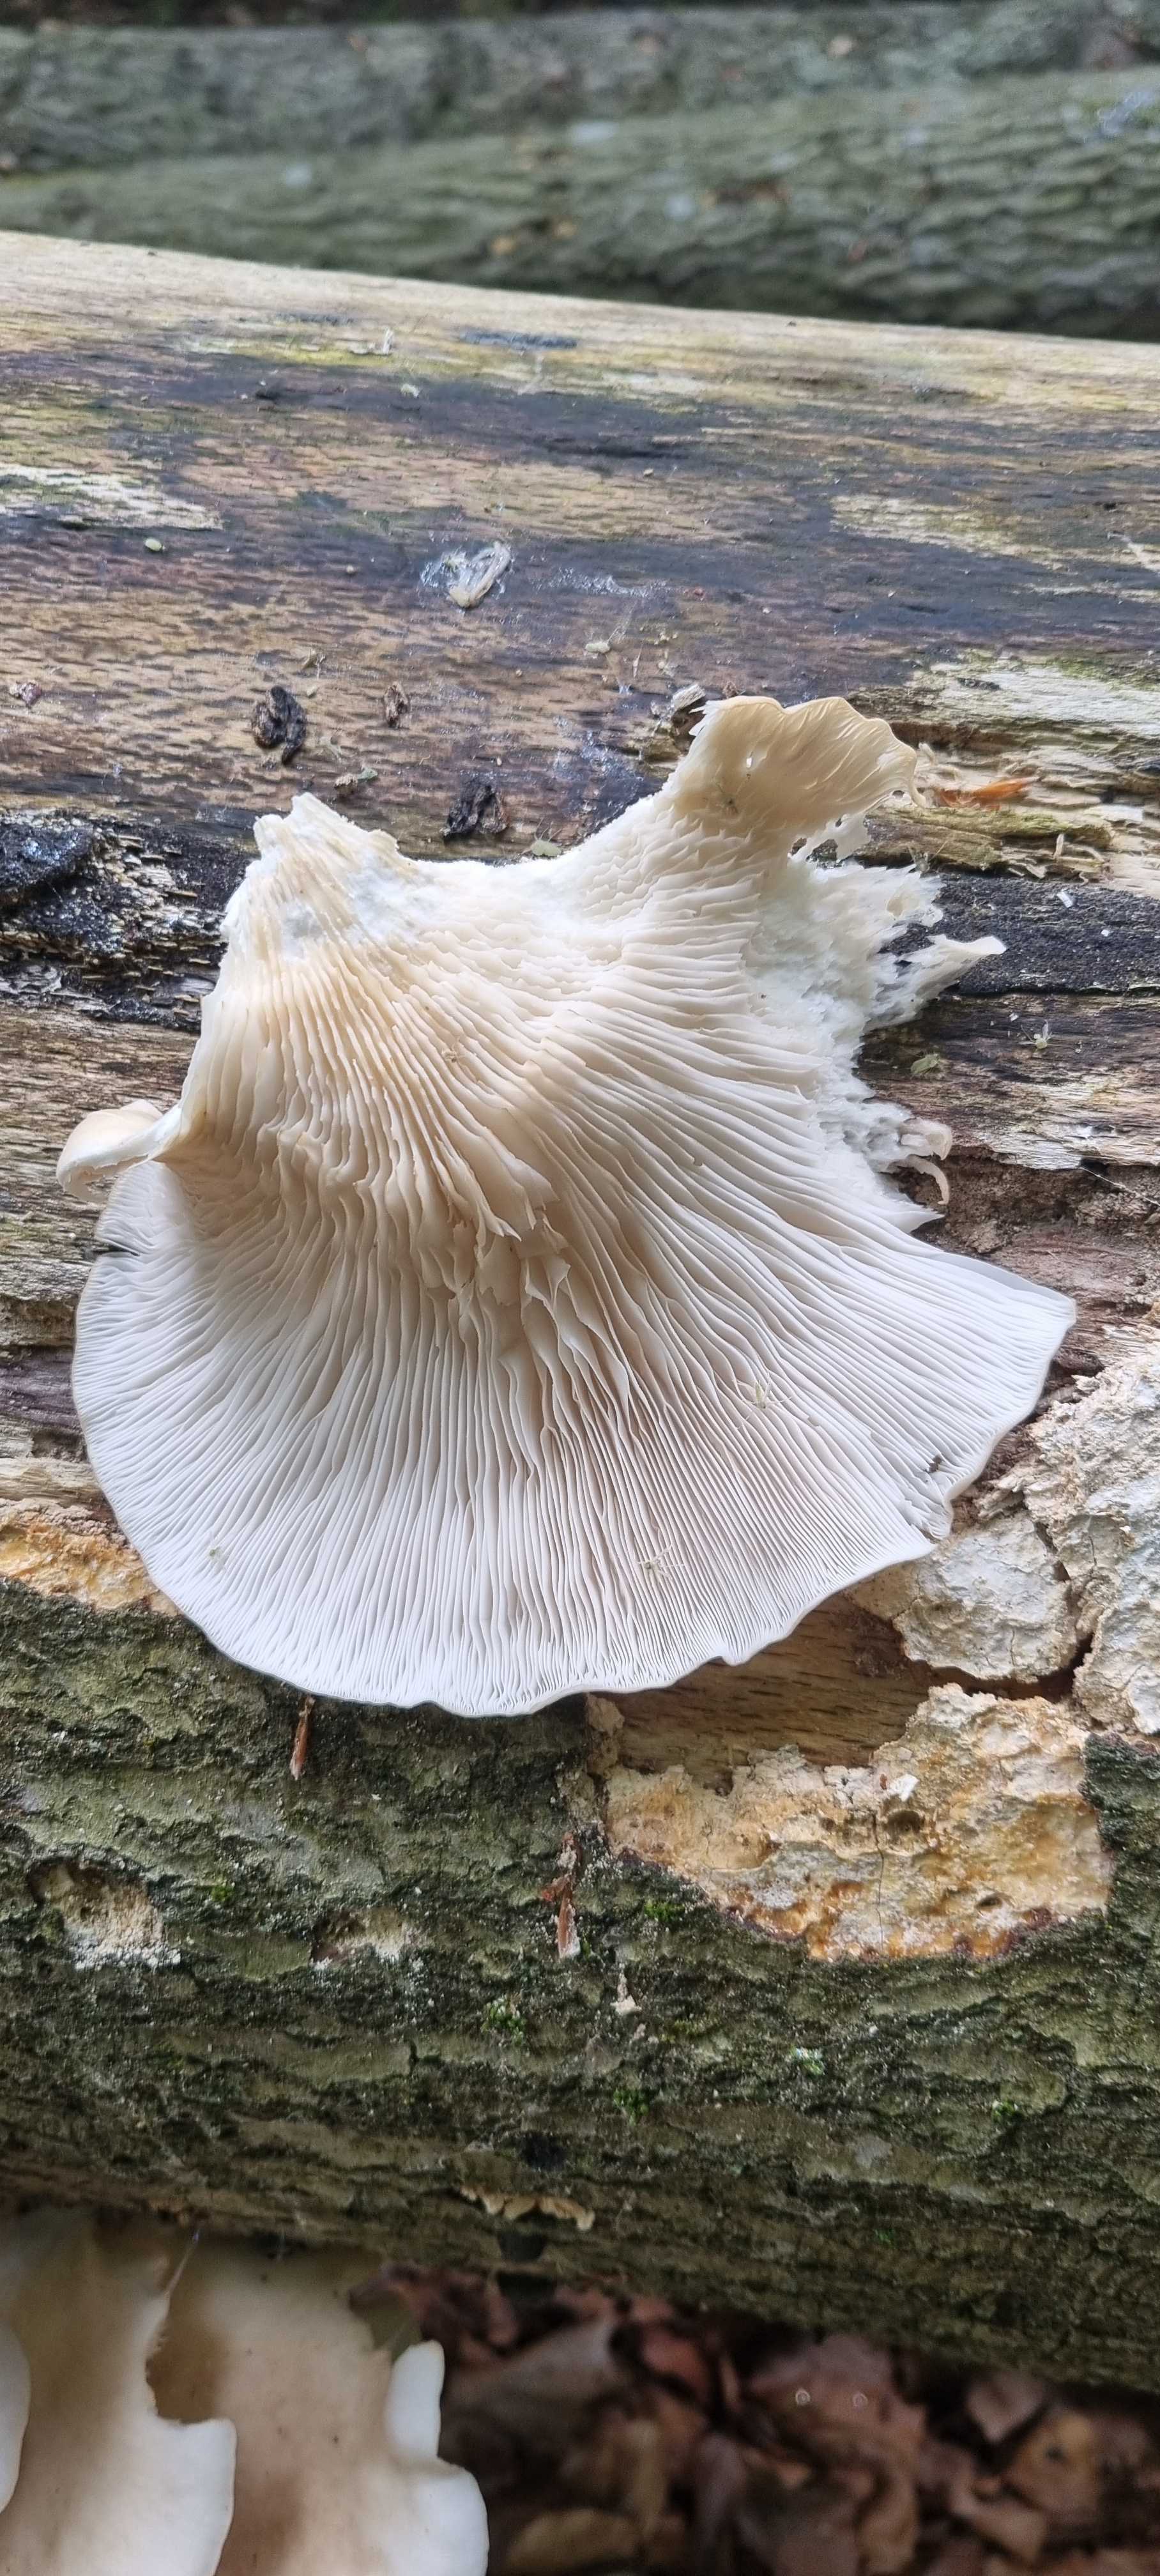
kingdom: Fungi
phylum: Basidiomycota
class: Agaricomycetes
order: Agaricales
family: Pleurotaceae
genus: Pleurotus
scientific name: Pleurotus pulmonarius
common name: sommer-østershat
